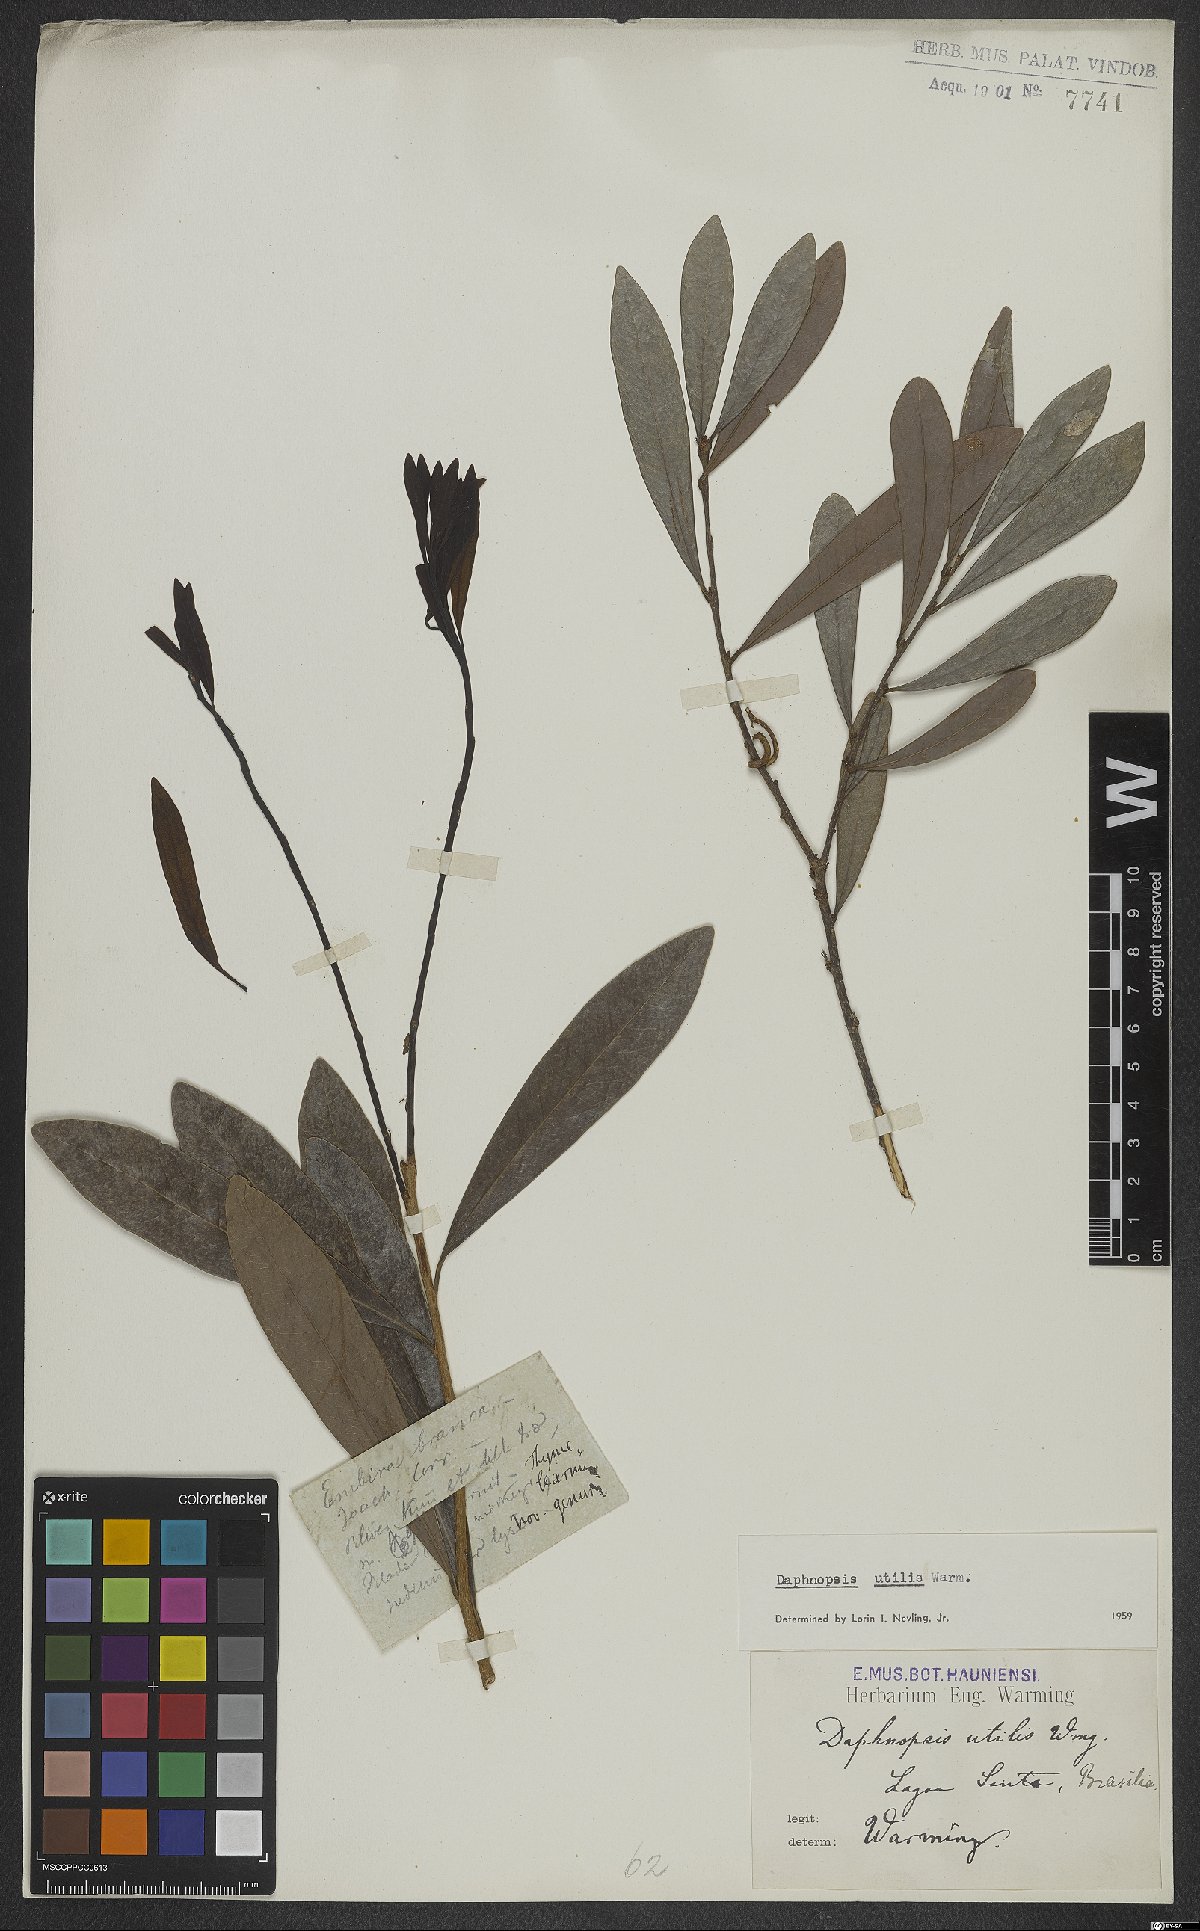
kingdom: Plantae
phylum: Tracheophyta
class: Magnoliopsida
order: Malvales
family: Thymelaeaceae
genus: Daphnopsis
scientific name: Daphnopsis utilis
